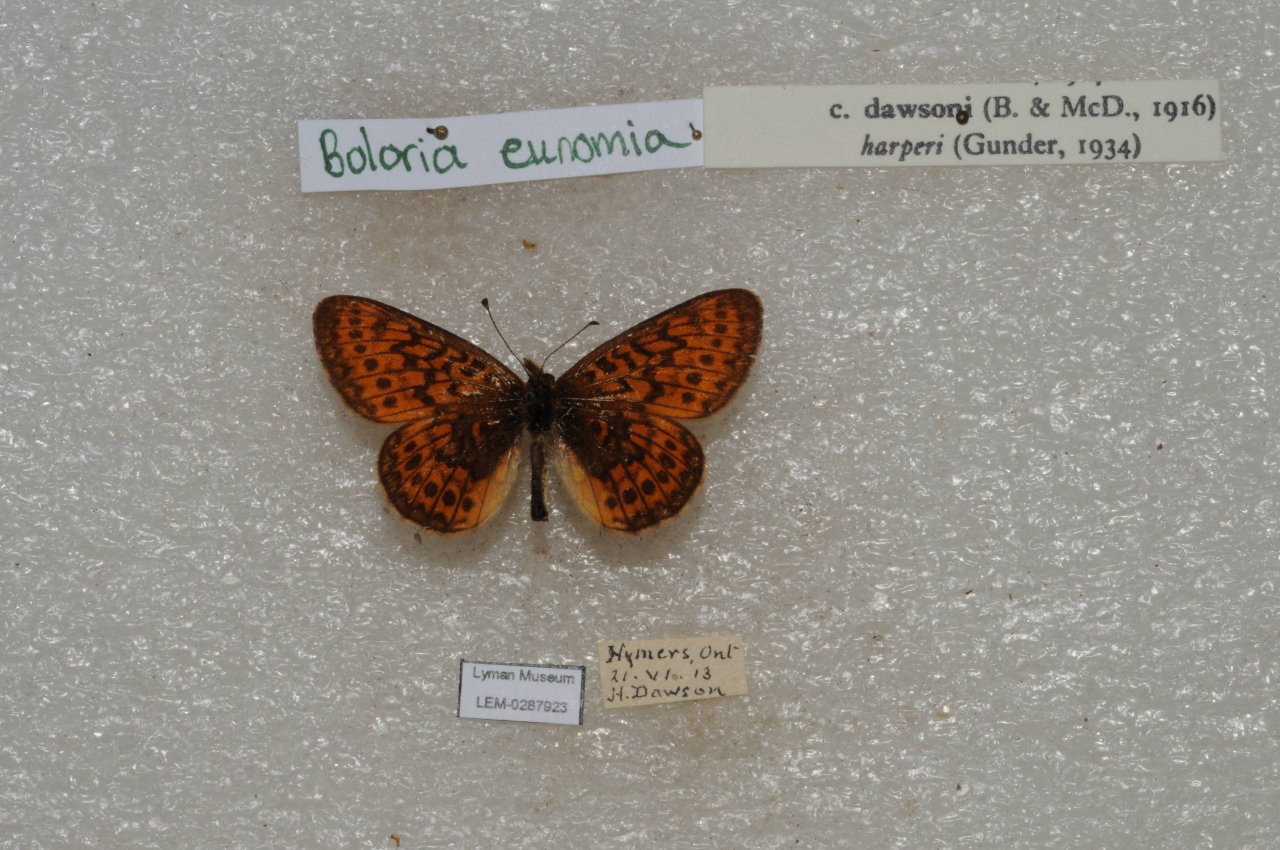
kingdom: Animalia
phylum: Arthropoda
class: Insecta
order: Lepidoptera
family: Nymphalidae
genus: Boloria
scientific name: Boloria eunomia
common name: Bog Fritillary
